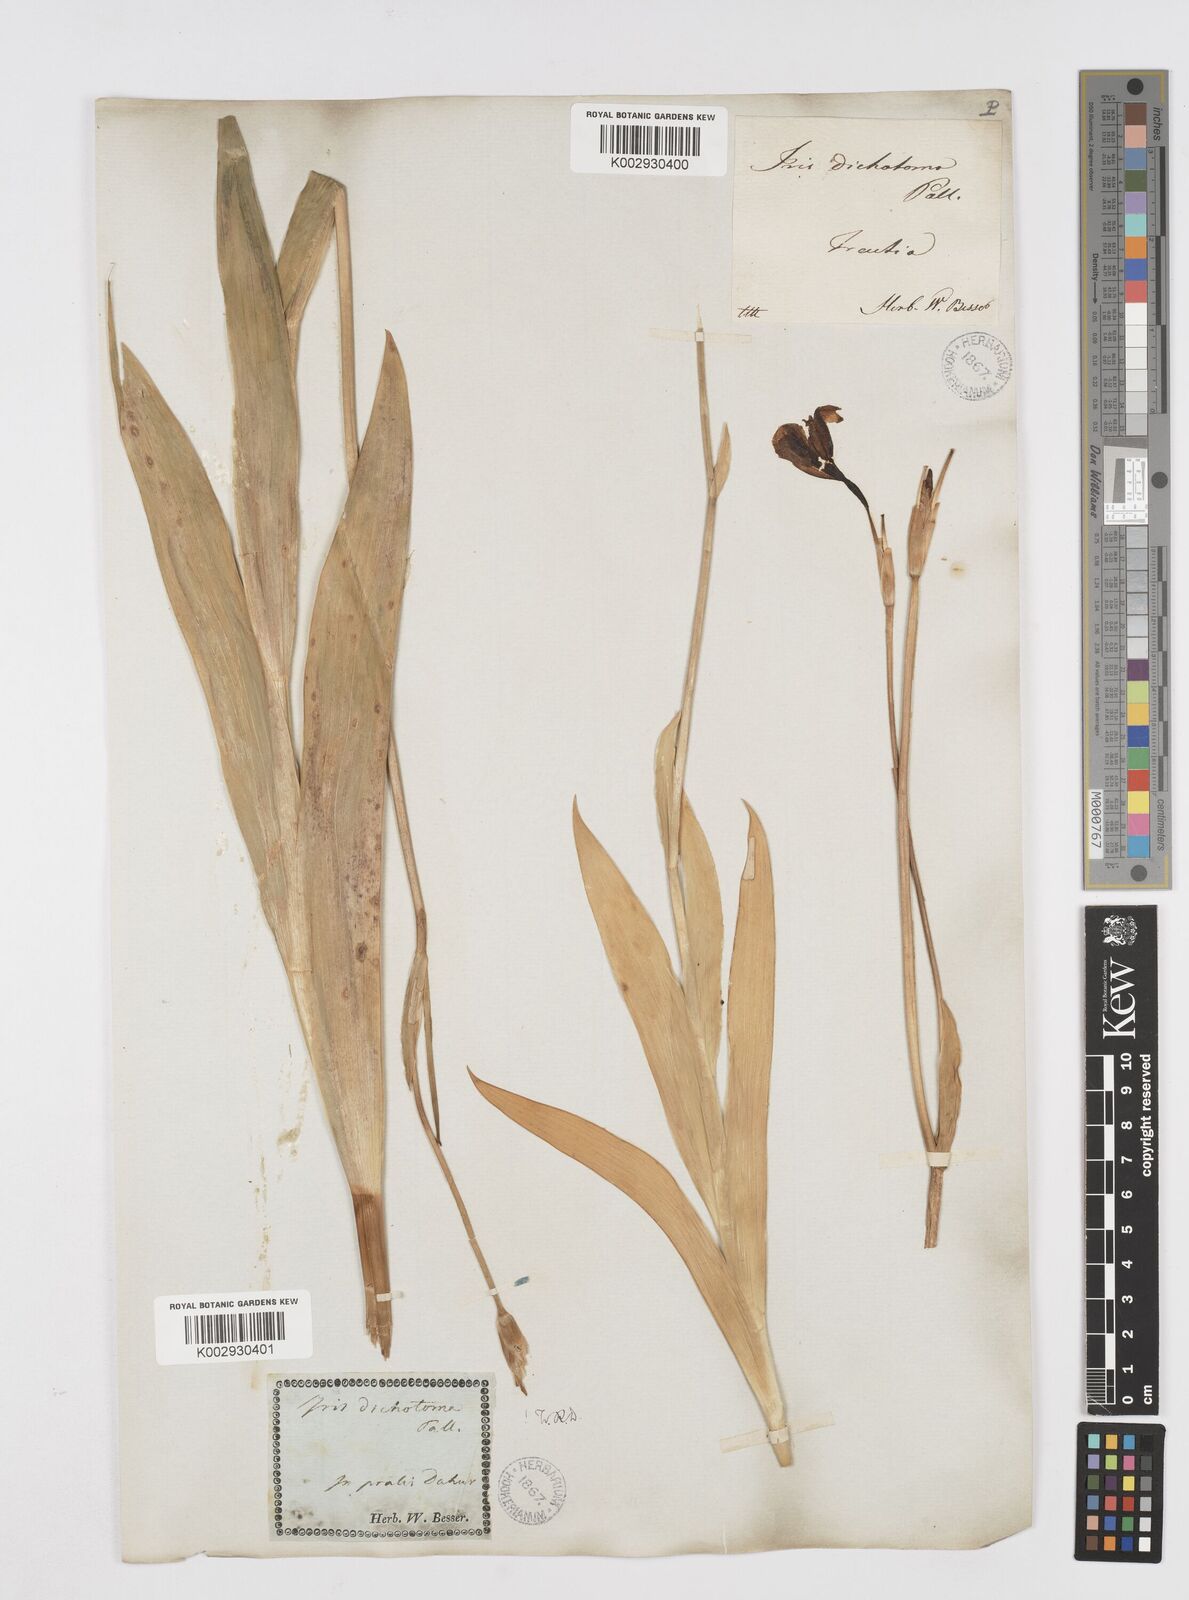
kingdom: Plantae
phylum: Tracheophyta
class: Liliopsida
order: Asparagales
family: Iridaceae
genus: Iris
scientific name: Iris dichotoma
